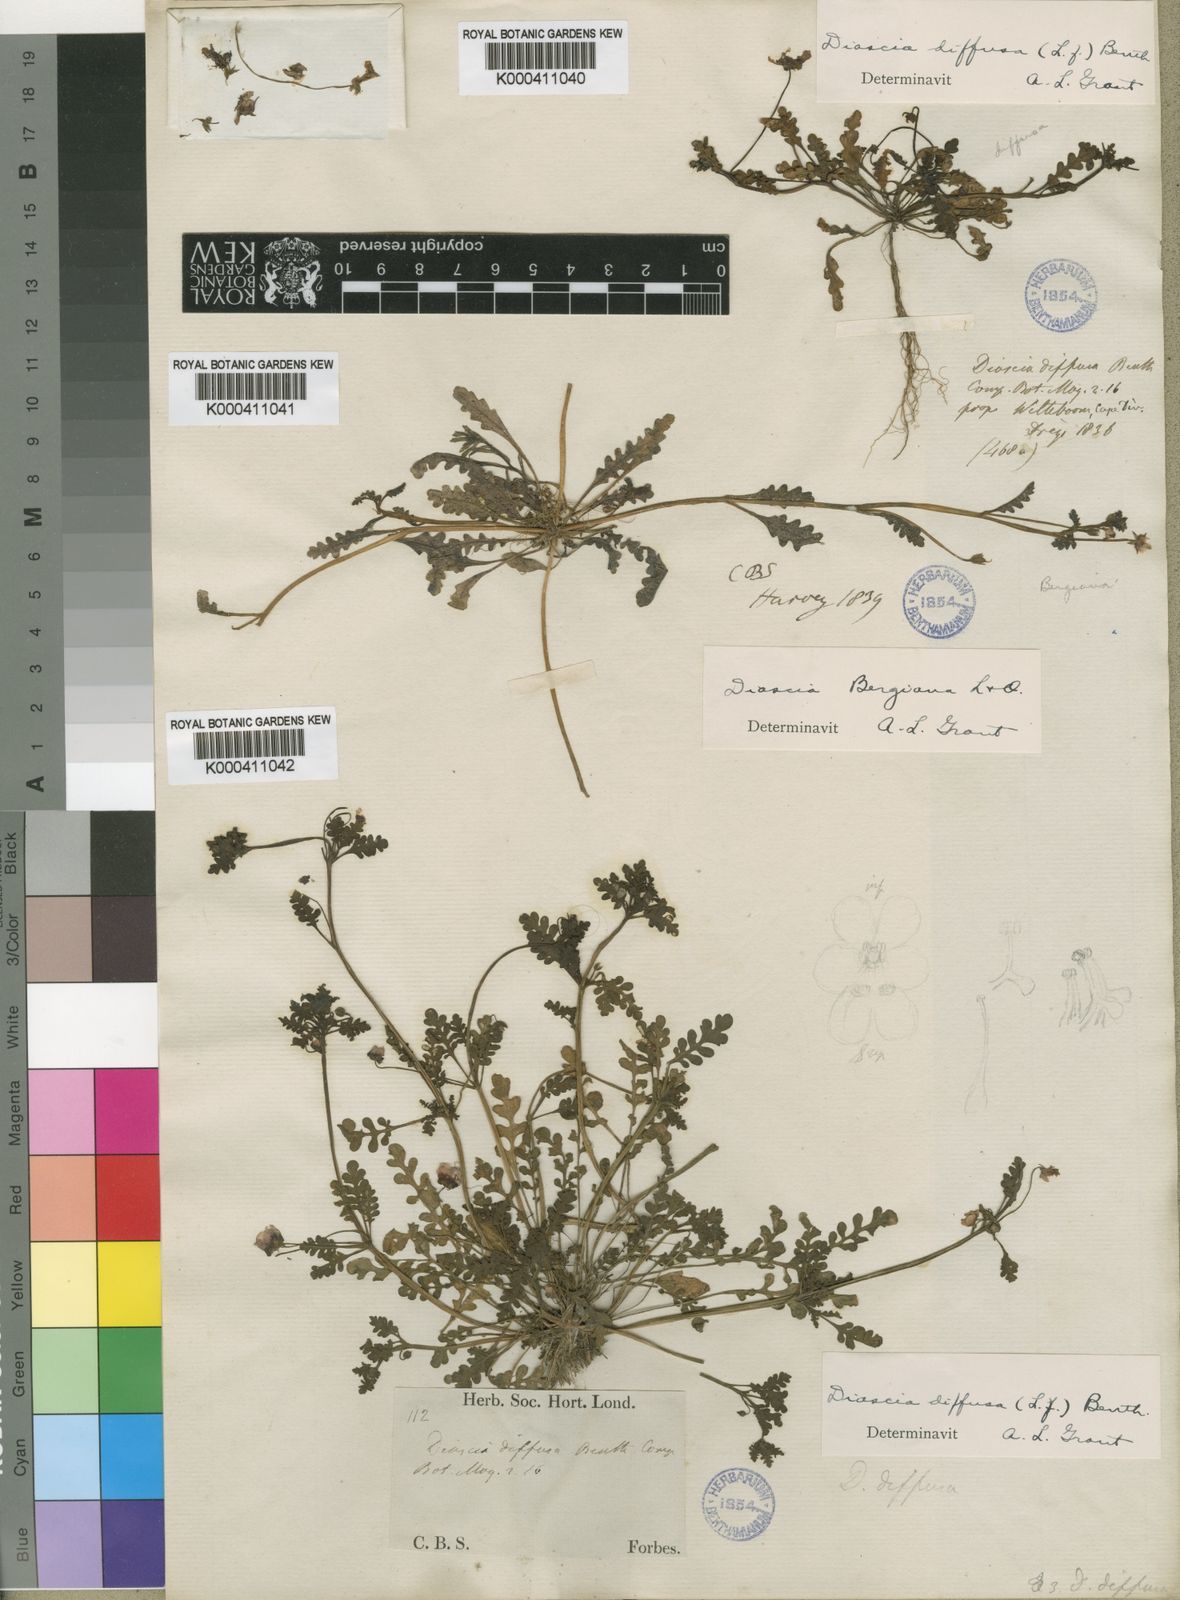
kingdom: Plantae
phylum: Tracheophyta
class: Magnoliopsida
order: Lamiales
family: Scrophulariaceae
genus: Diascia
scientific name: Diascia diffusa
